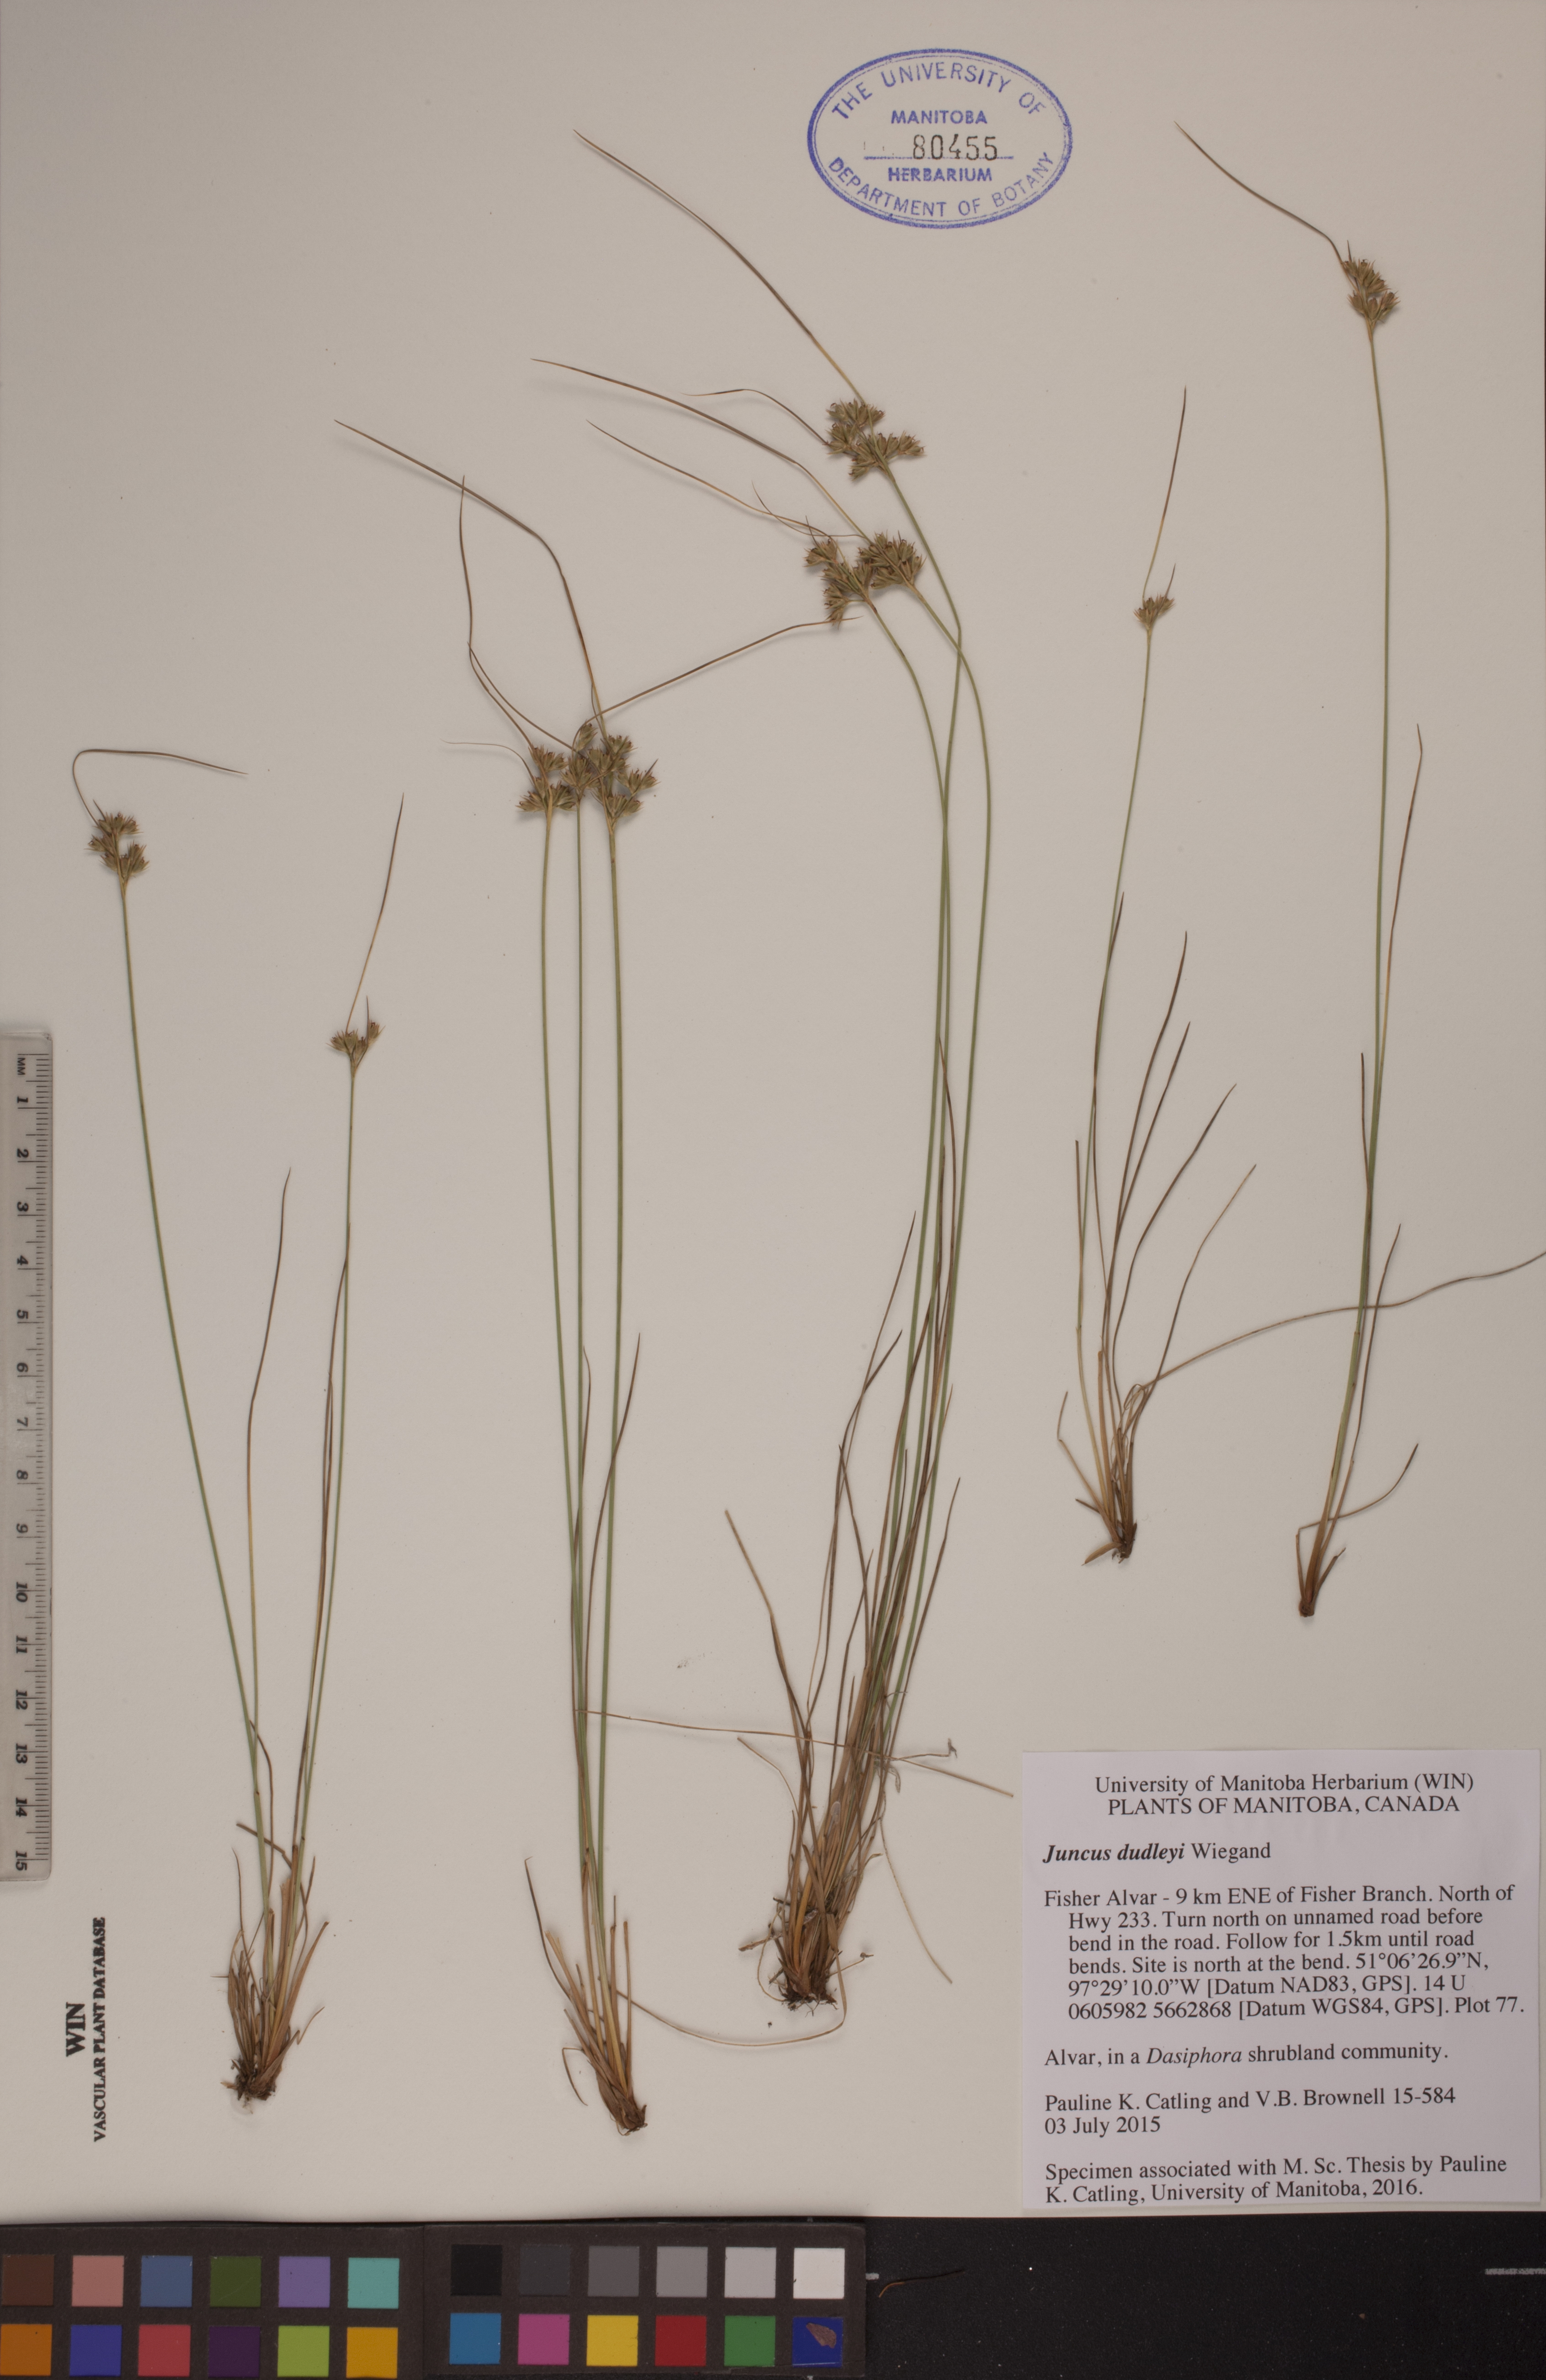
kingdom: Plantae
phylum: Tracheophyta
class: Liliopsida
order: Poales
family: Juncaceae
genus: Juncus
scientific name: Juncus dudleyi
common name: Dudley's rush
